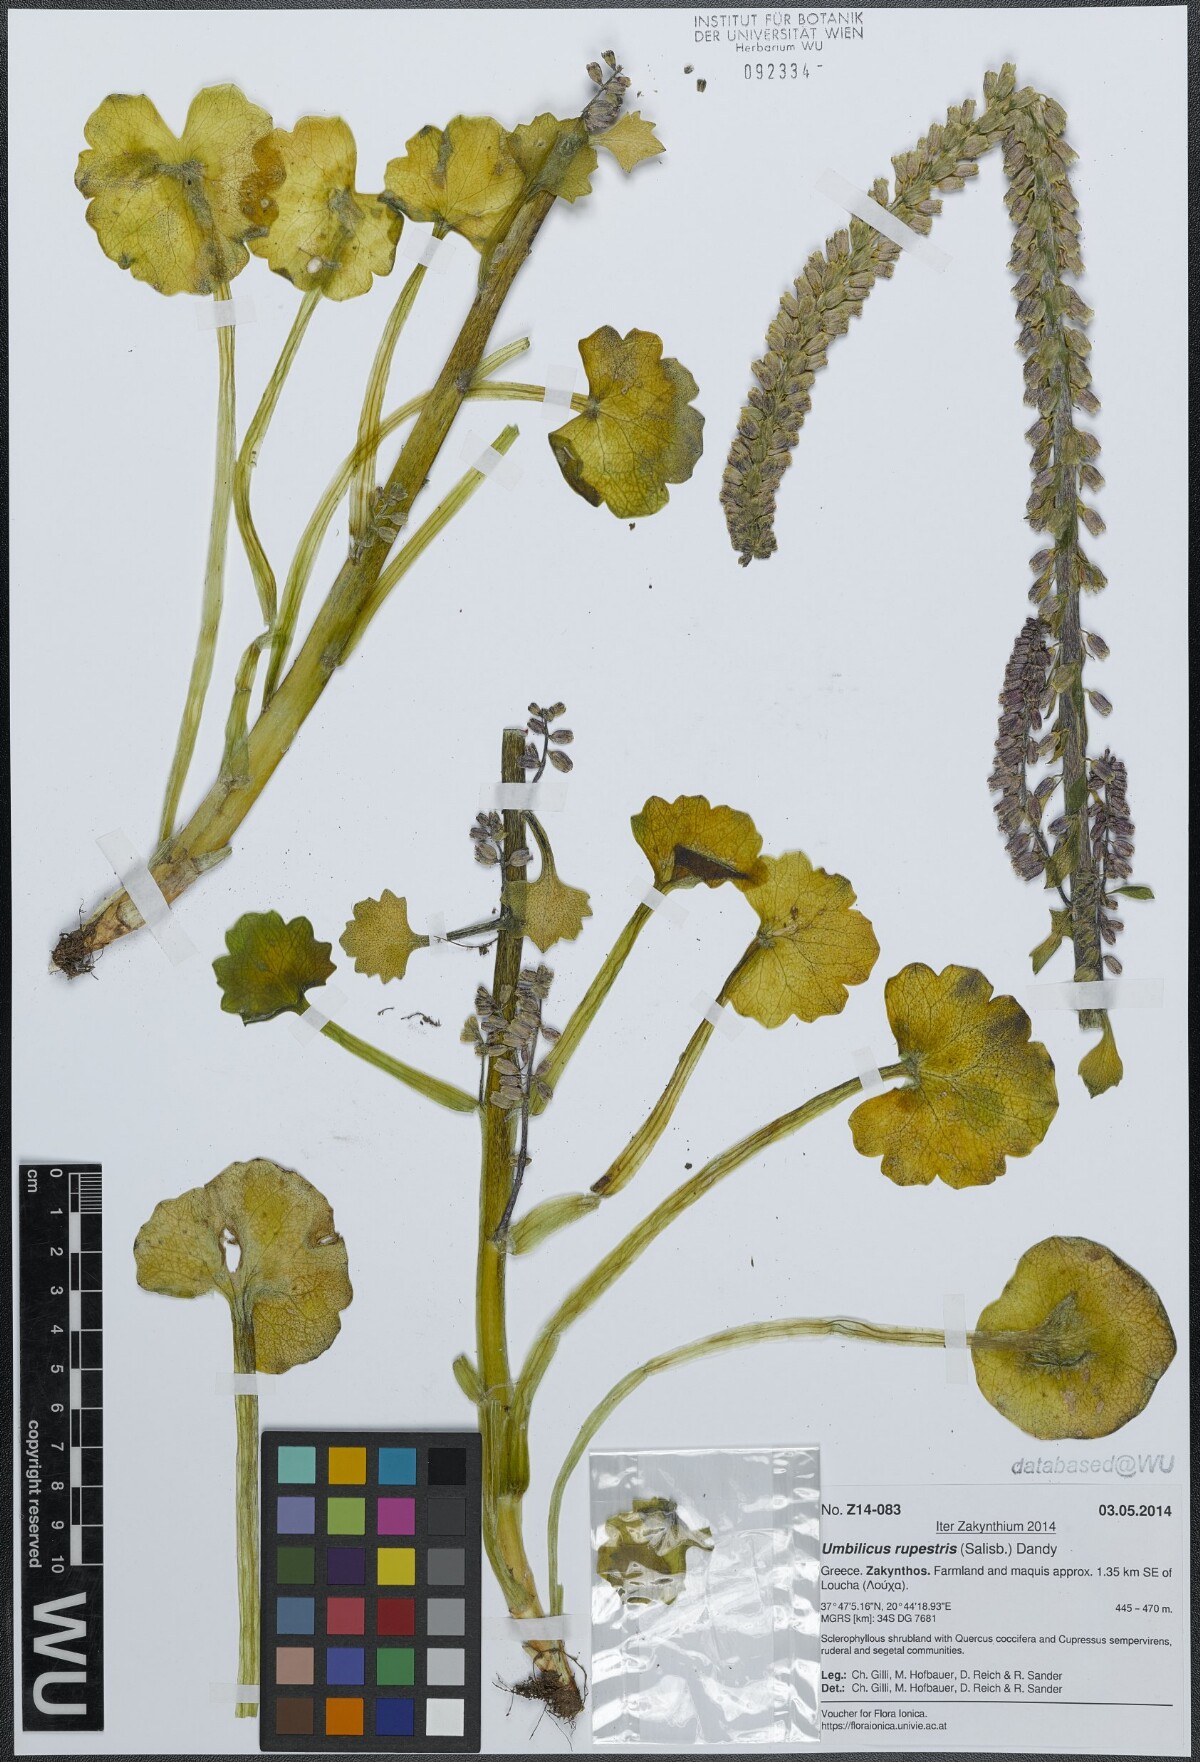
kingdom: Plantae
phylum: Tracheophyta
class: Magnoliopsida
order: Saxifragales
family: Crassulaceae
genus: Umbilicus
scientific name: Umbilicus rupestris
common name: Navelwort
